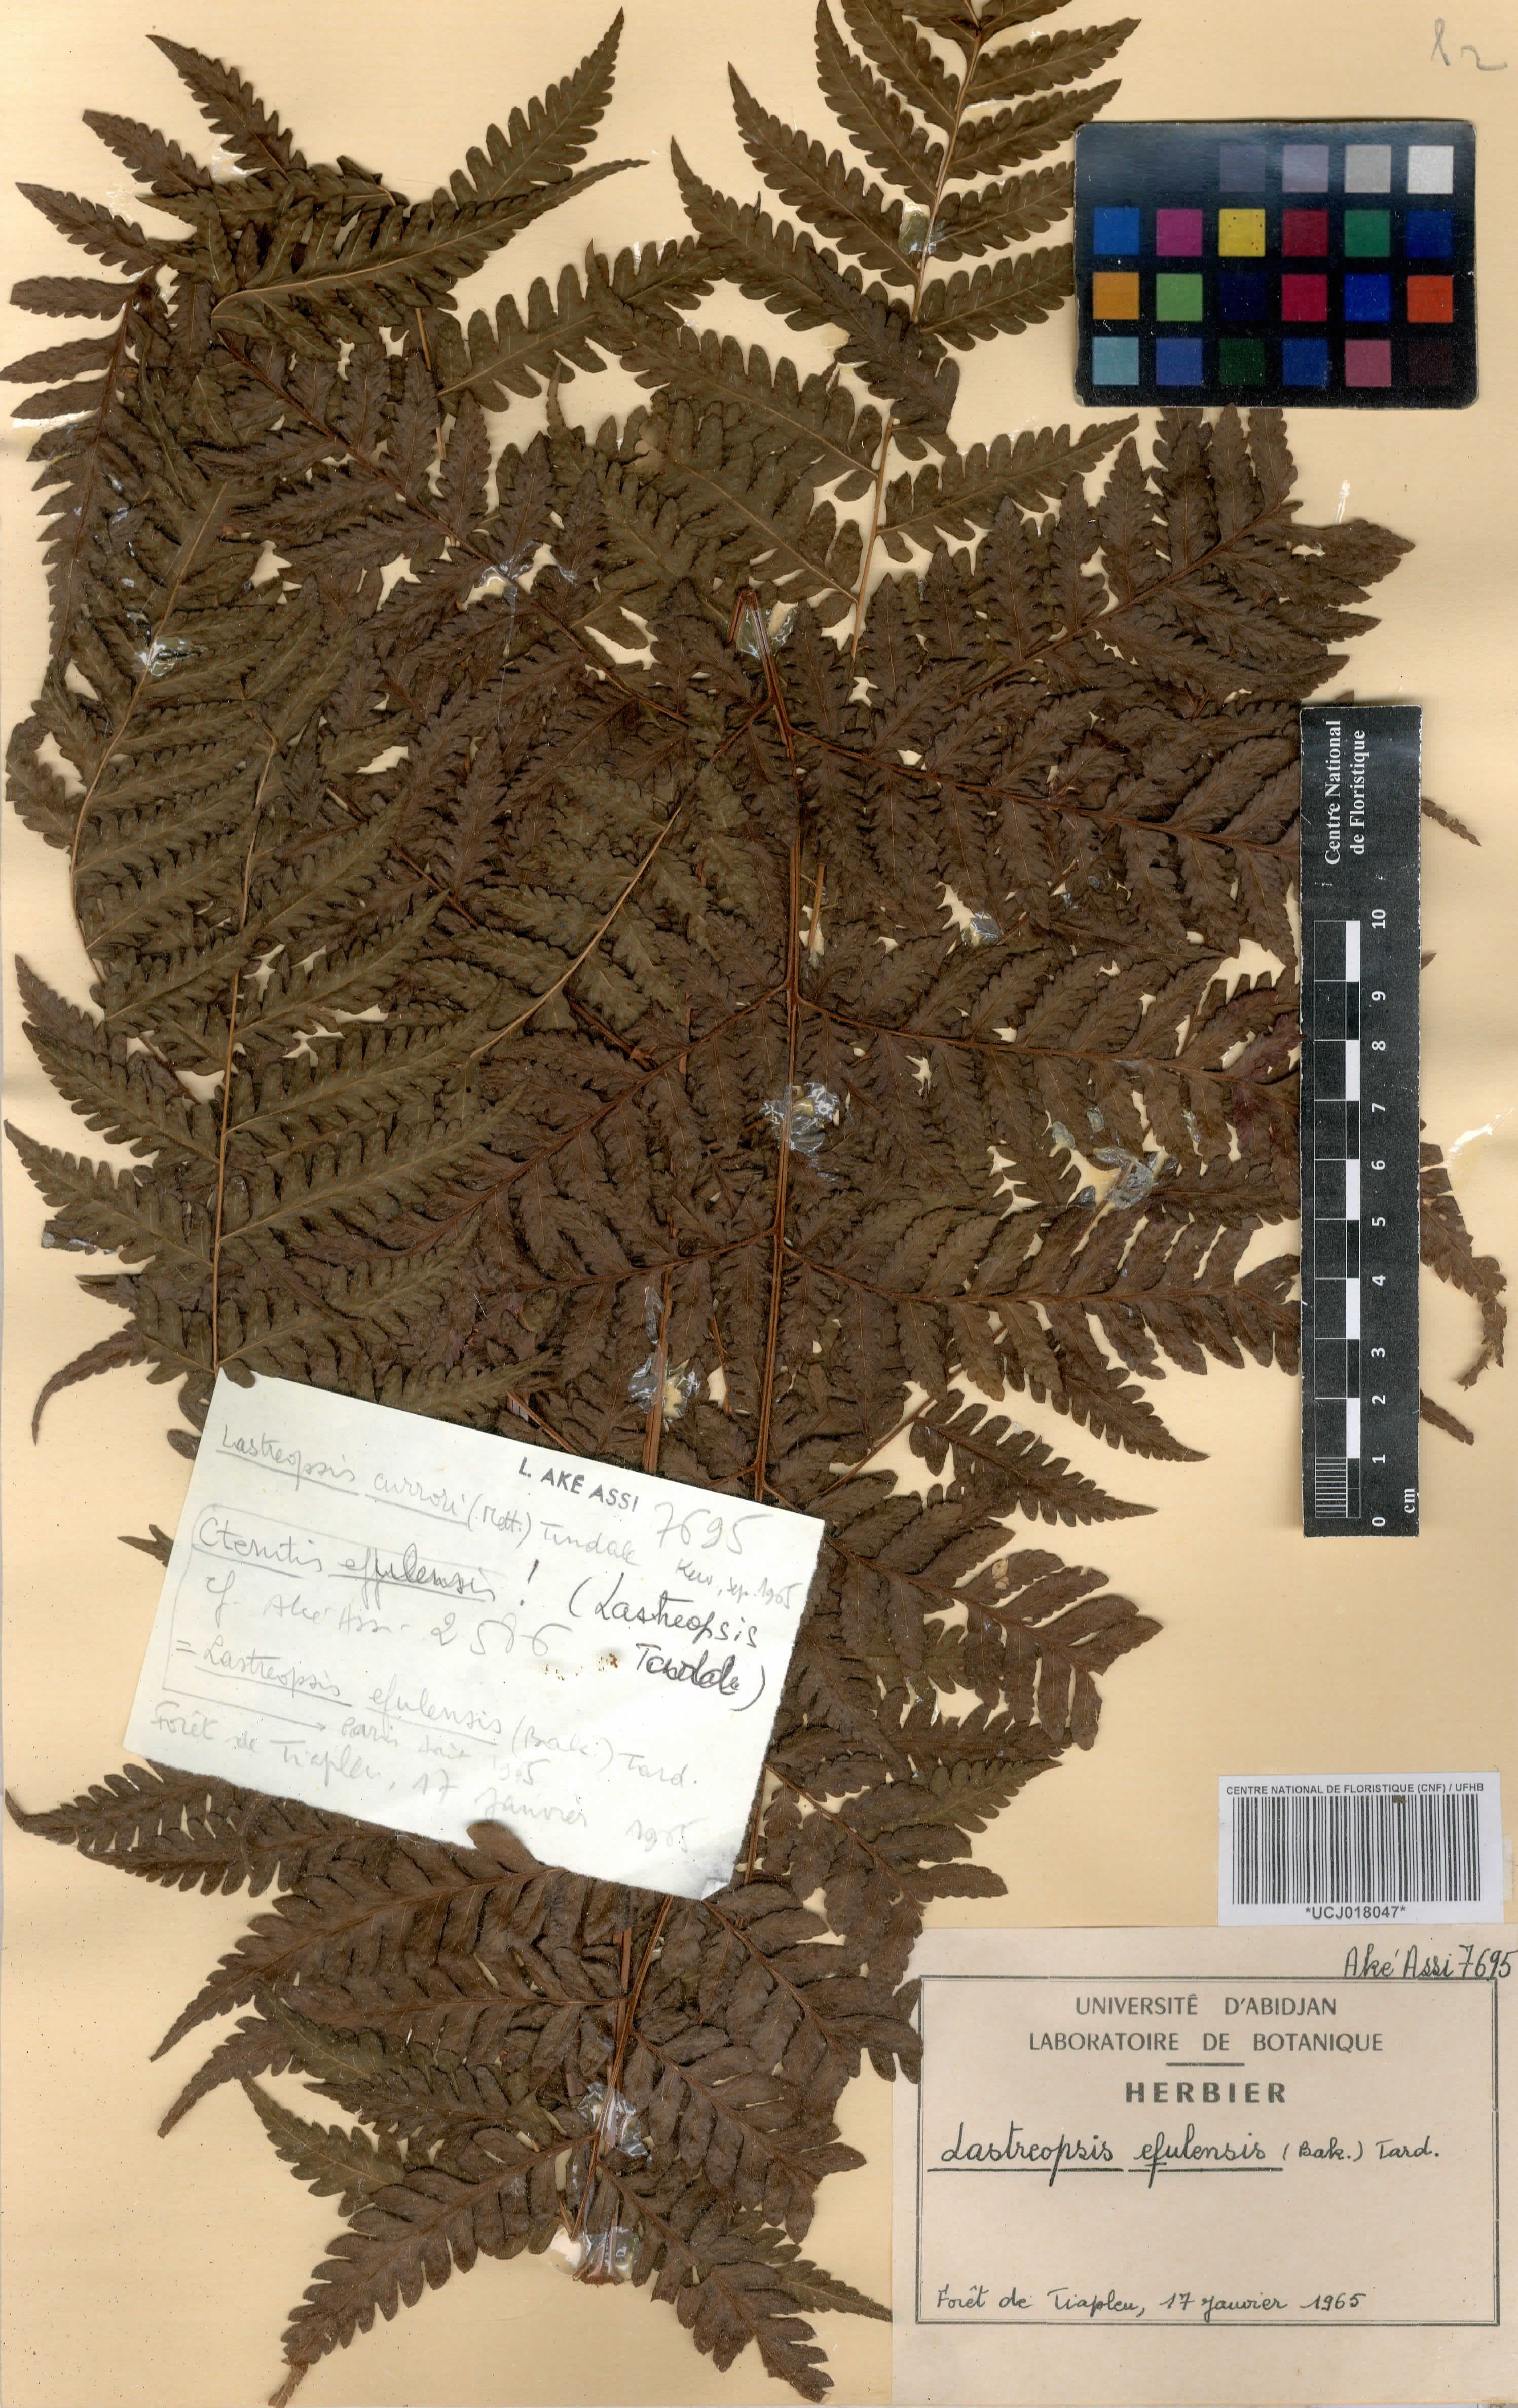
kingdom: Plantae
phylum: Tracheophyta
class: Polypodiopsida
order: Polypodiales
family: Dryopteridaceae
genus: Parapolystichum
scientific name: Parapolystichum currorii
